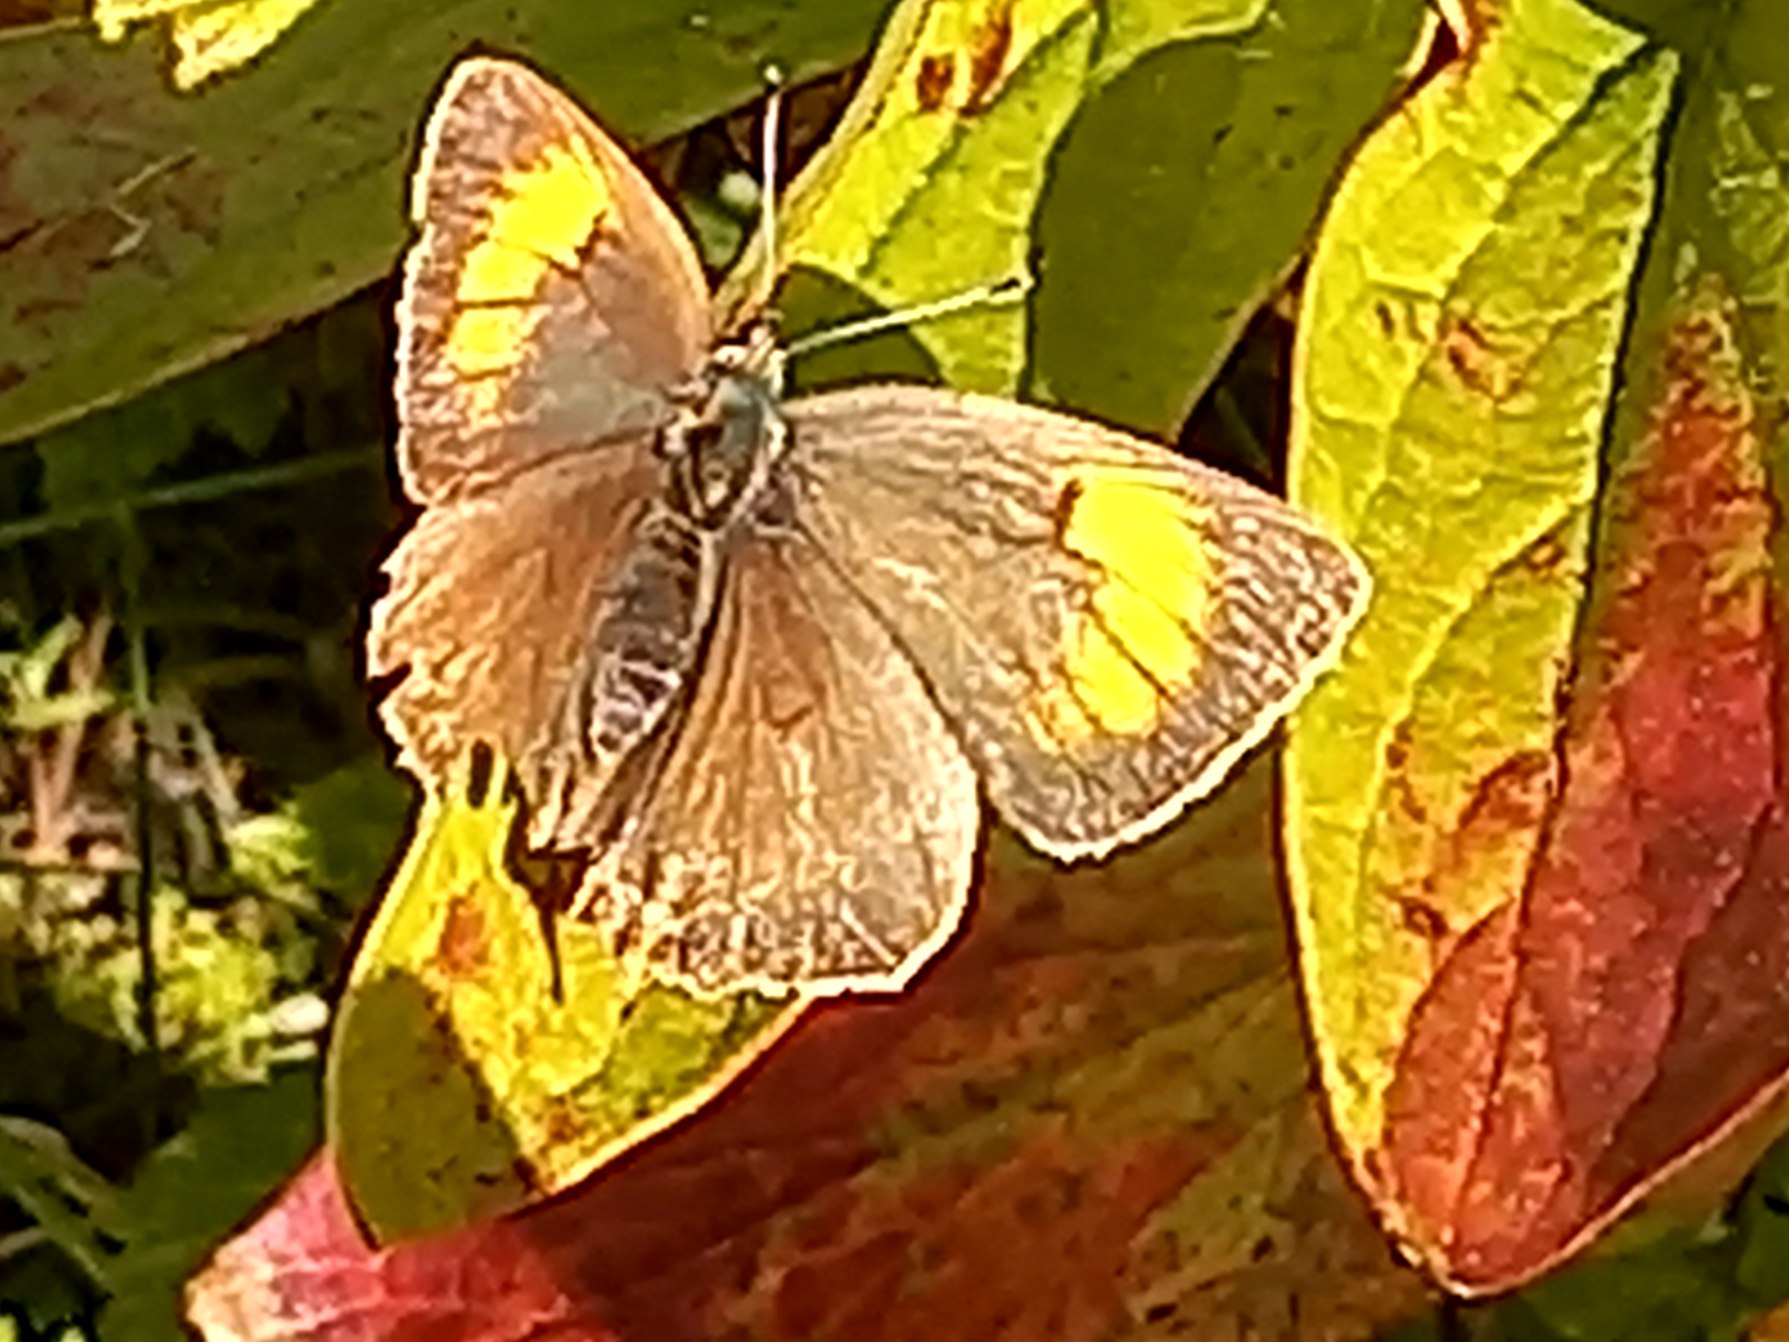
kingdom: Animalia
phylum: Arthropoda
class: Insecta
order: Lepidoptera
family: Lycaenidae
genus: Thecla
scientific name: Thecla betulae
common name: Guldhale
